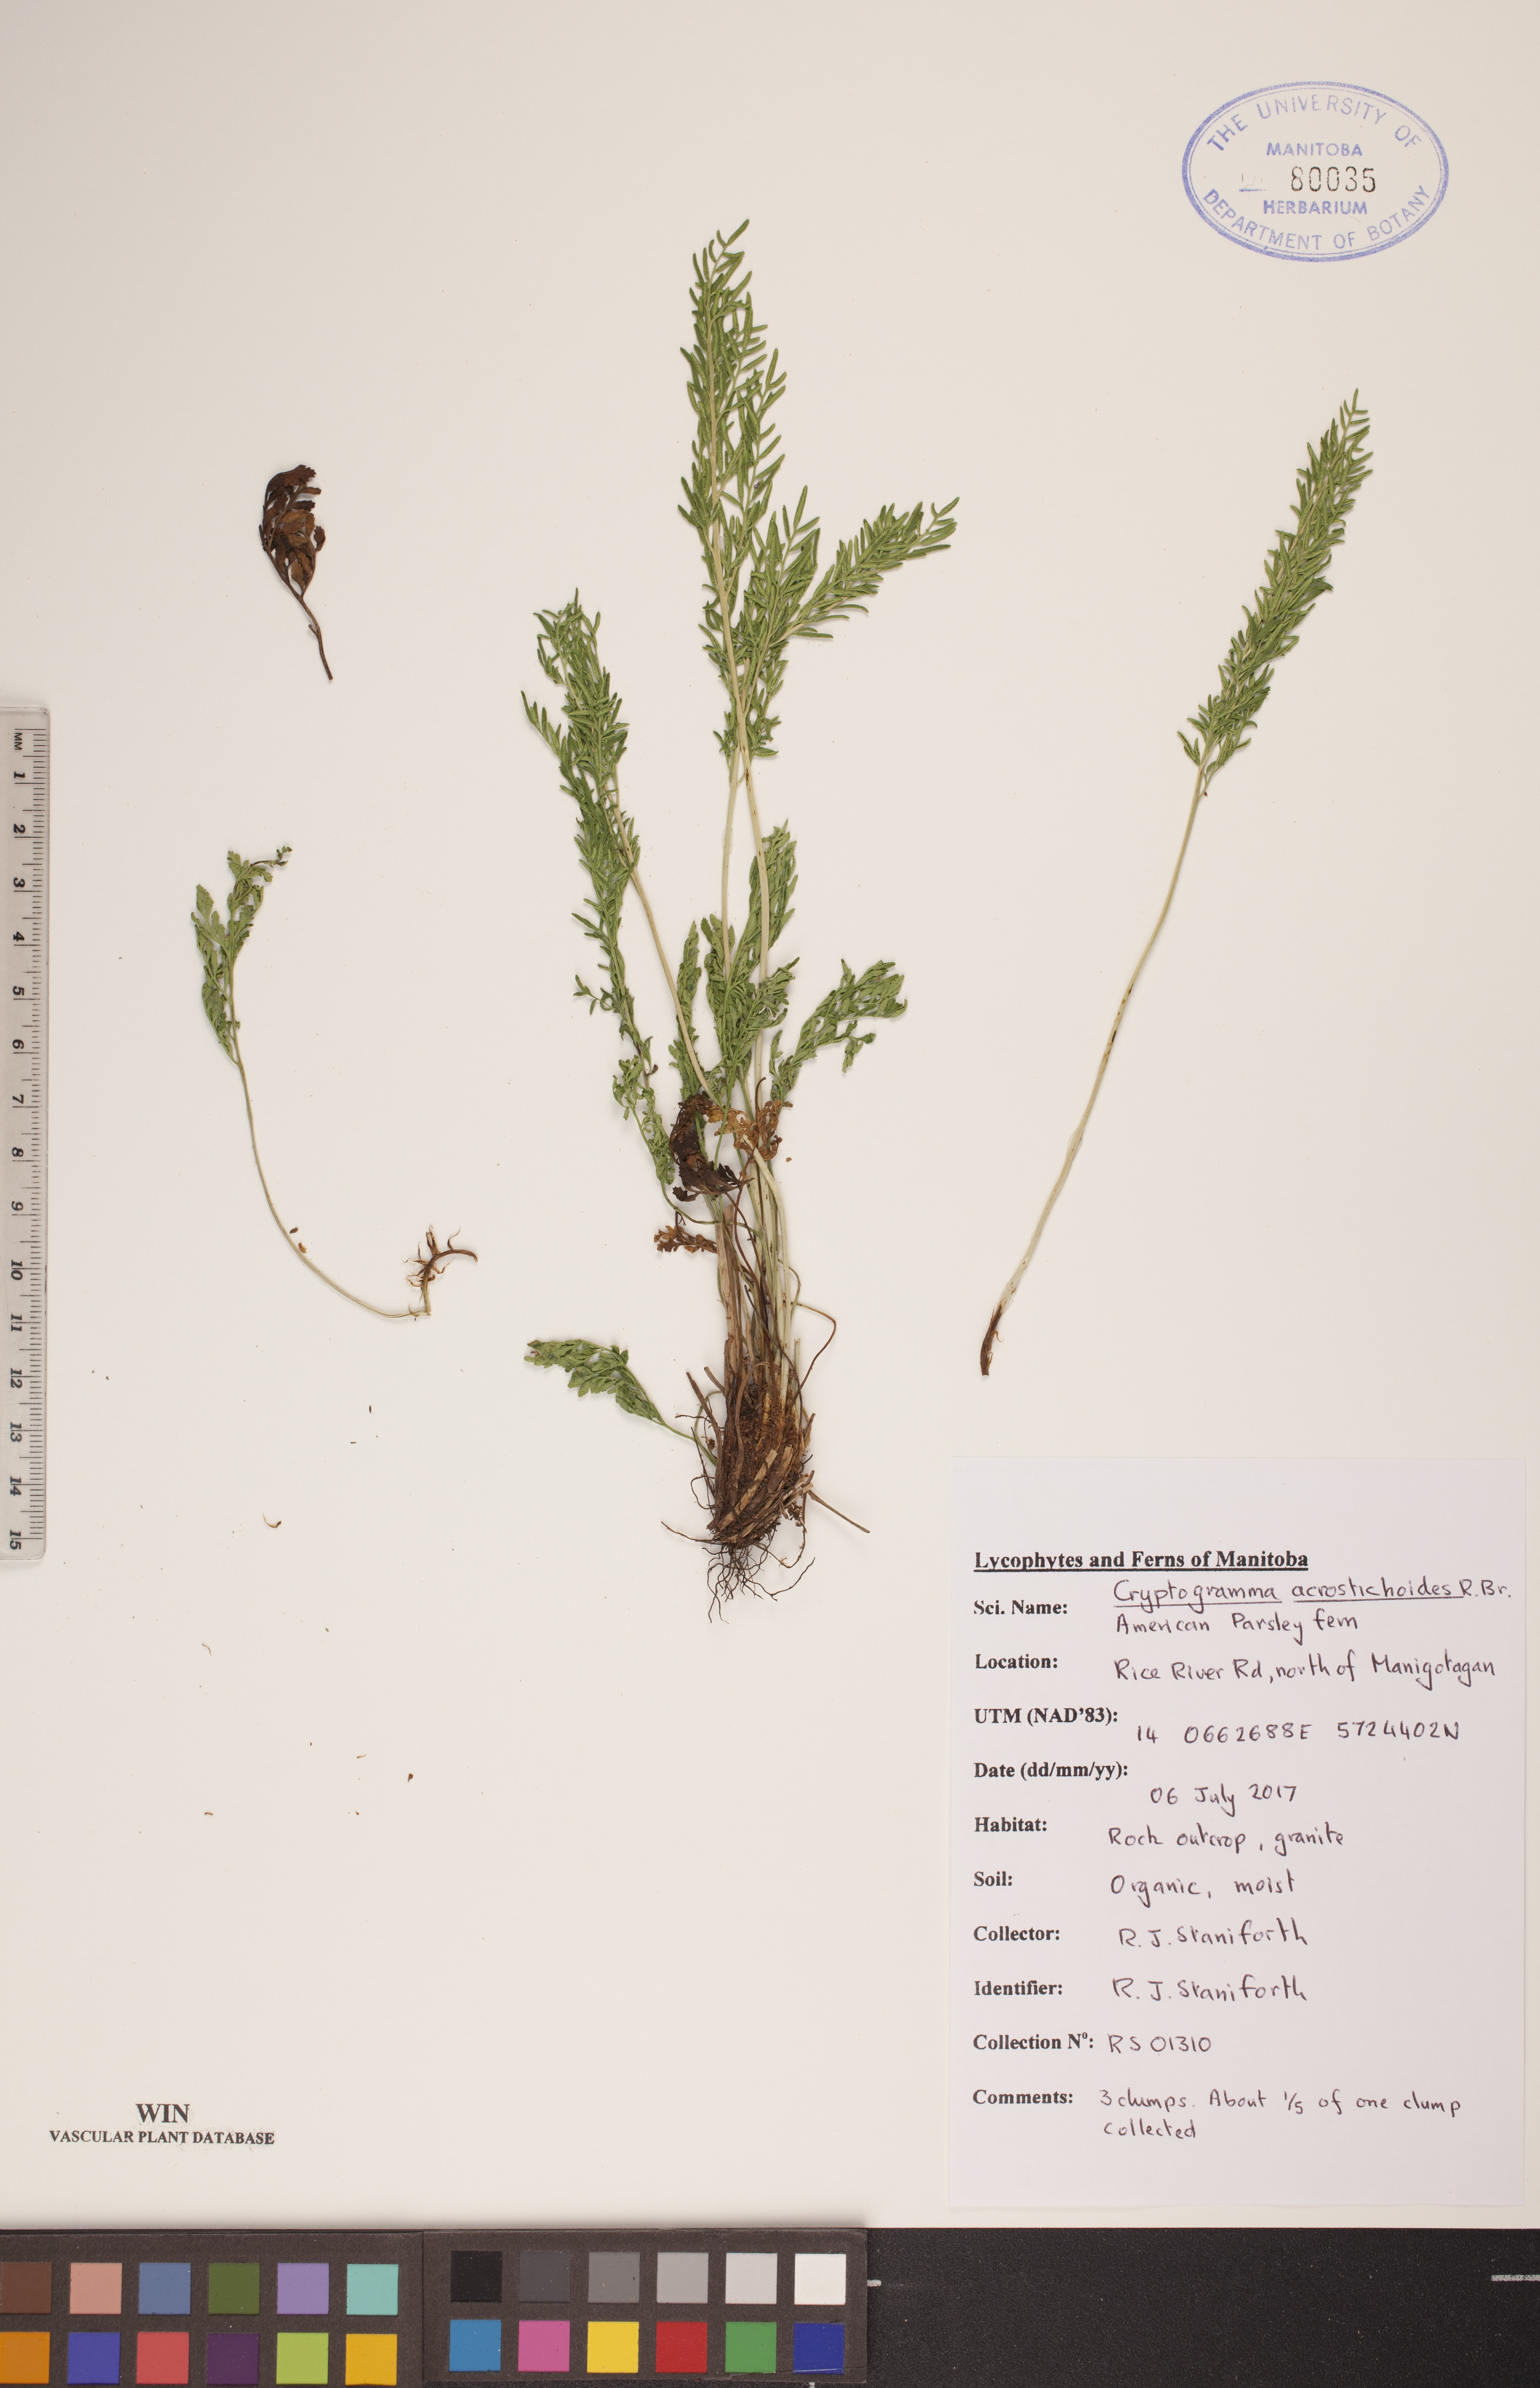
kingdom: Plantae
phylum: Tracheophyta
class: Polypodiopsida
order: Polypodiales
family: Pteridaceae
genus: Cryptogramma
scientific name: Cryptogramma acrostichoides
